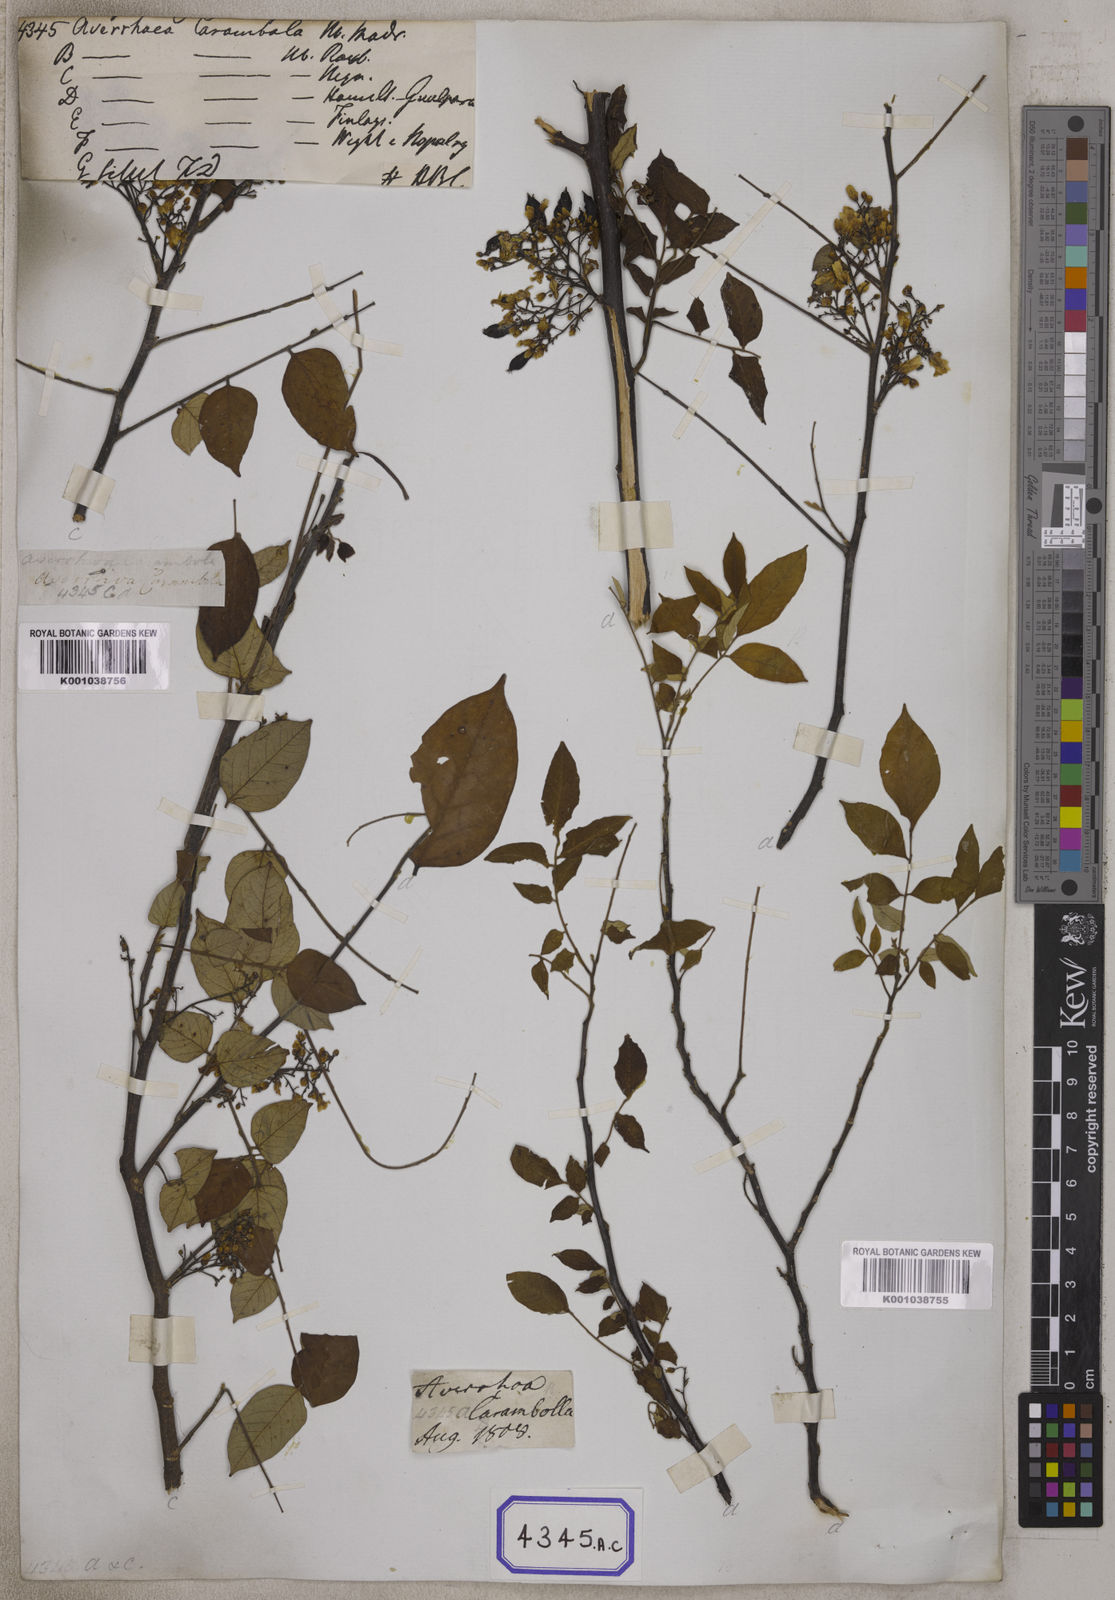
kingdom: Plantae
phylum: Tracheophyta
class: Magnoliopsida
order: Oxalidales
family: Oxalidaceae
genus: Averrhoa
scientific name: Averrhoa carambola
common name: Blimbing
